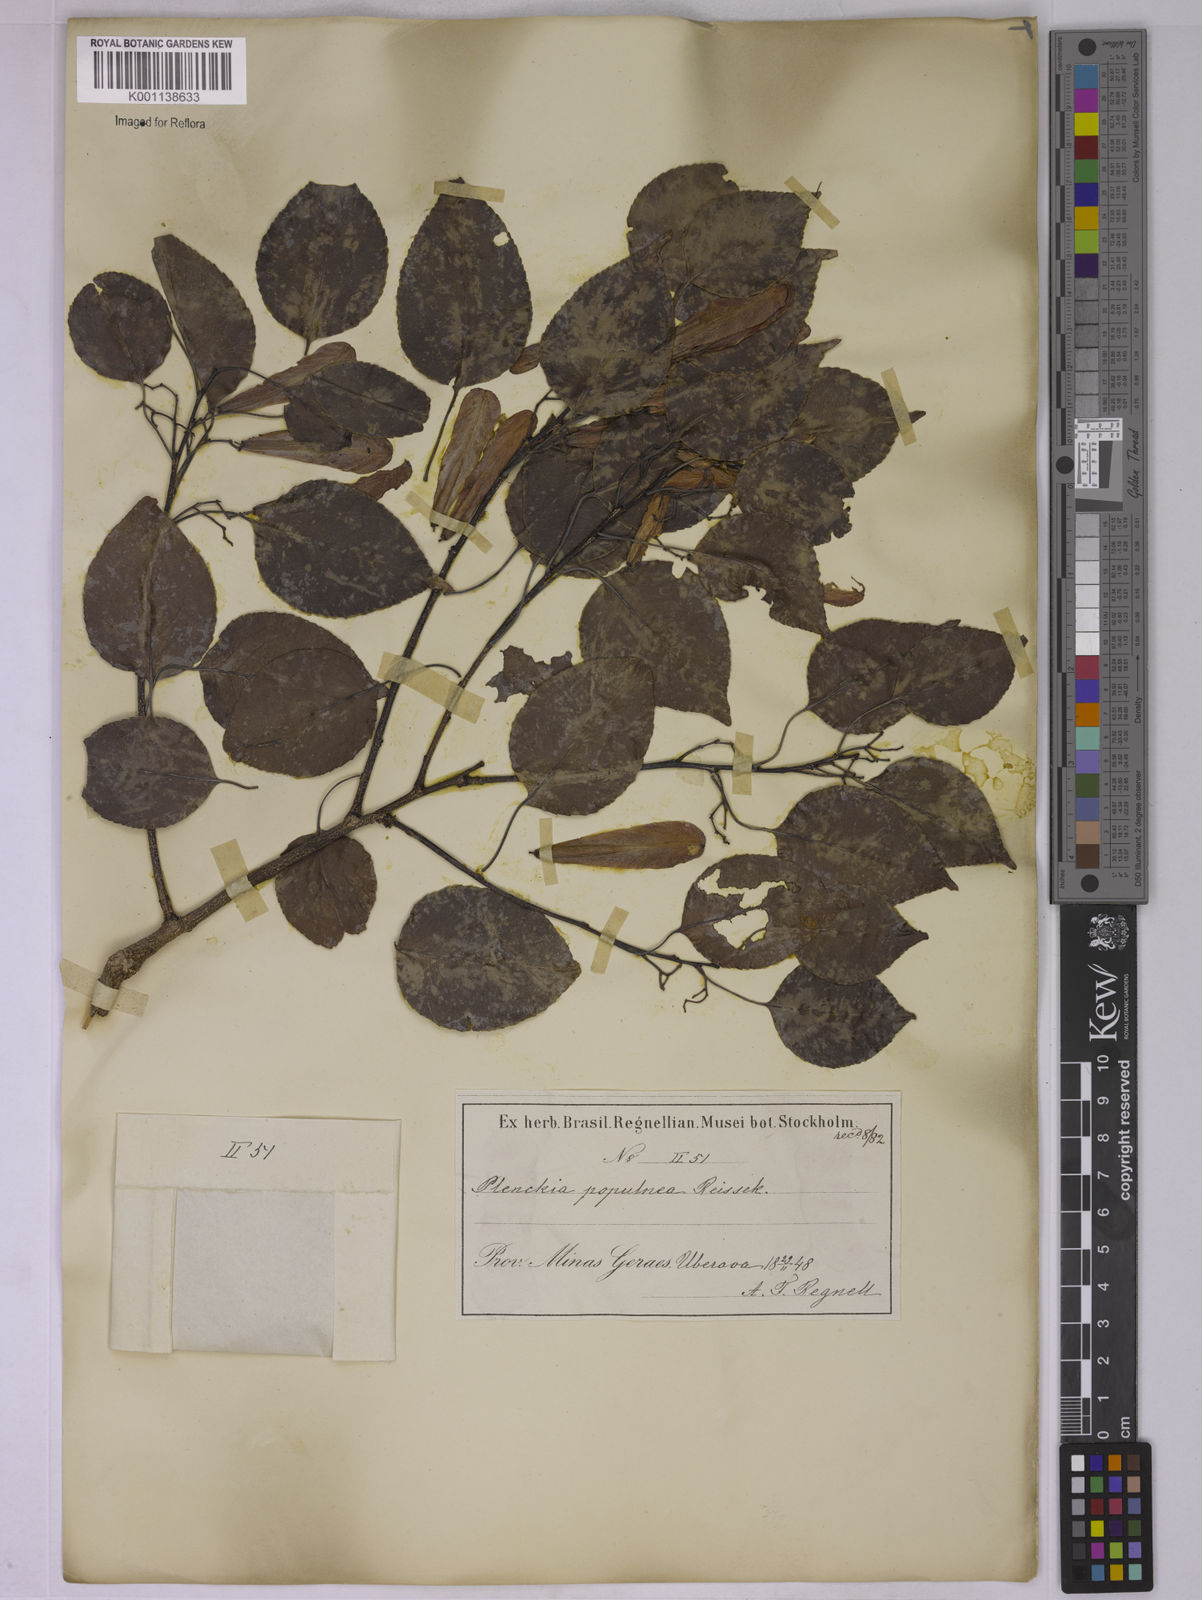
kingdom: Plantae
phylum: Tracheophyta
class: Magnoliopsida
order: Celastrales
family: Celastraceae
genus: Plenckia
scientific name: Plenckia populnea
